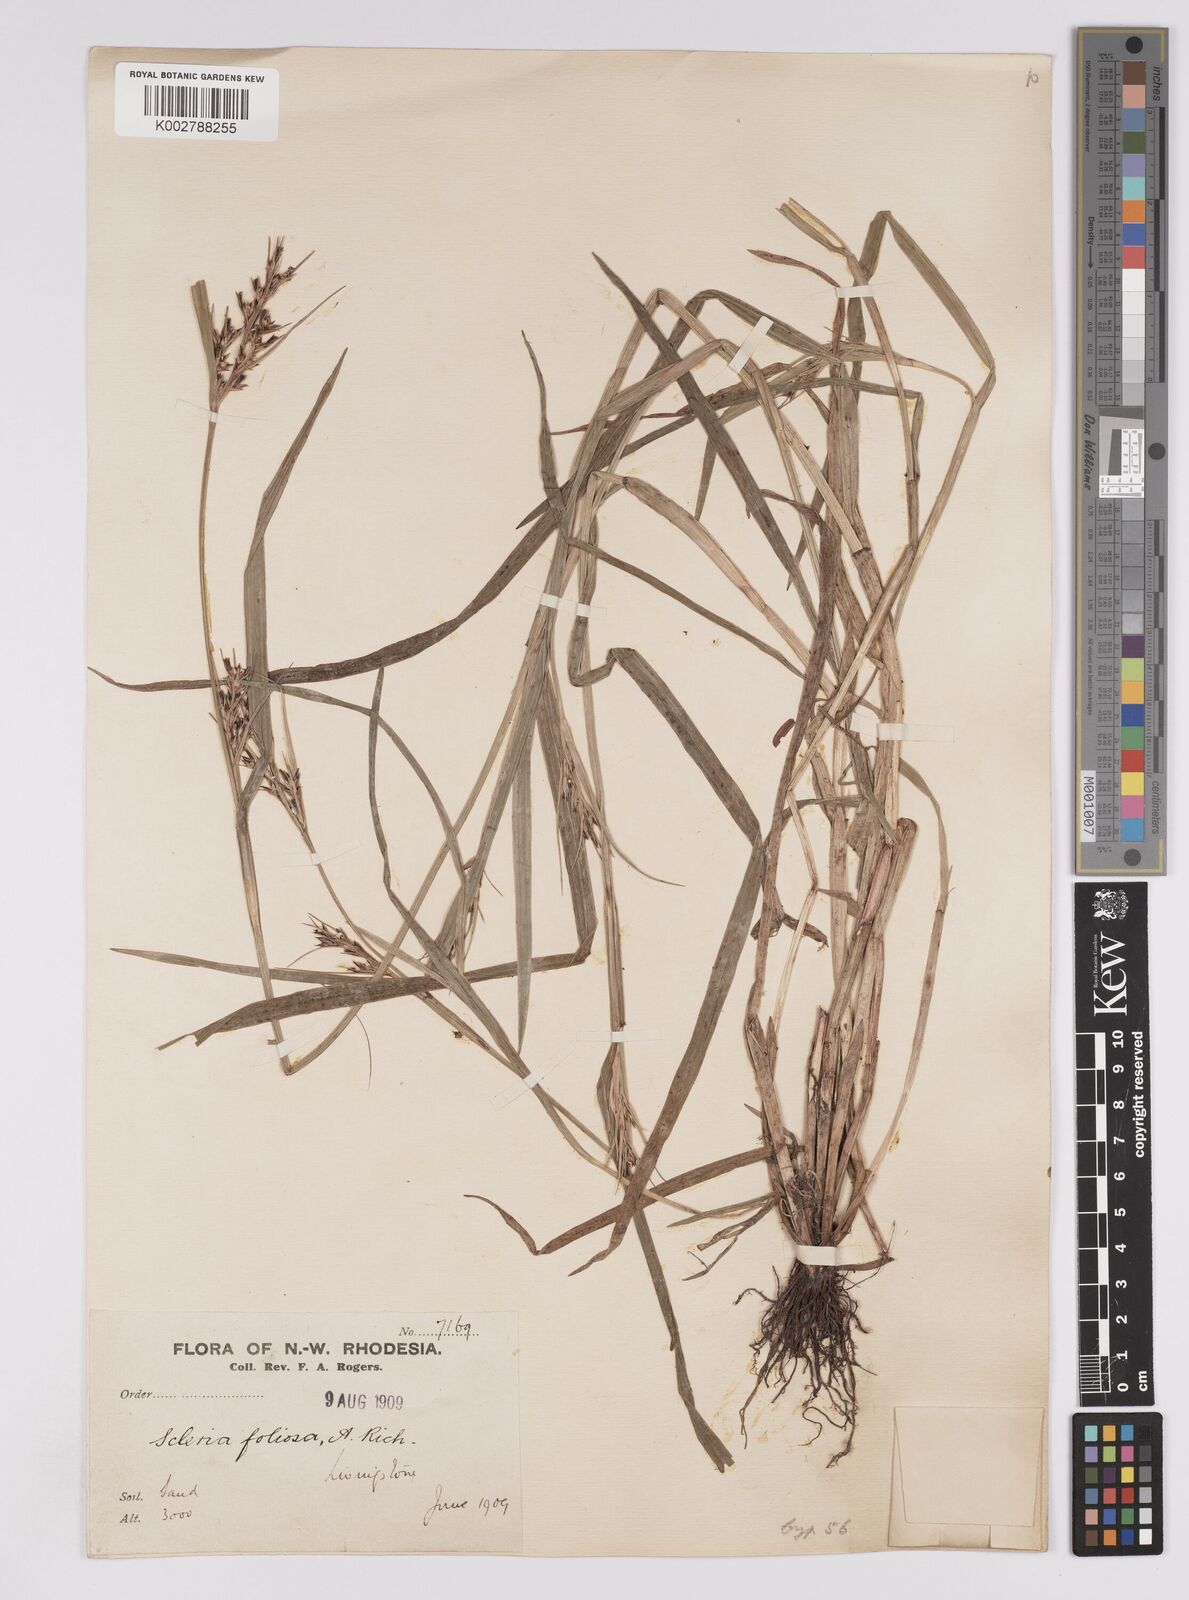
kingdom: Plantae
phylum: Tracheophyta
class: Liliopsida
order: Poales
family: Cyperaceae
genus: Scleria
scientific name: Scleria foliosa
